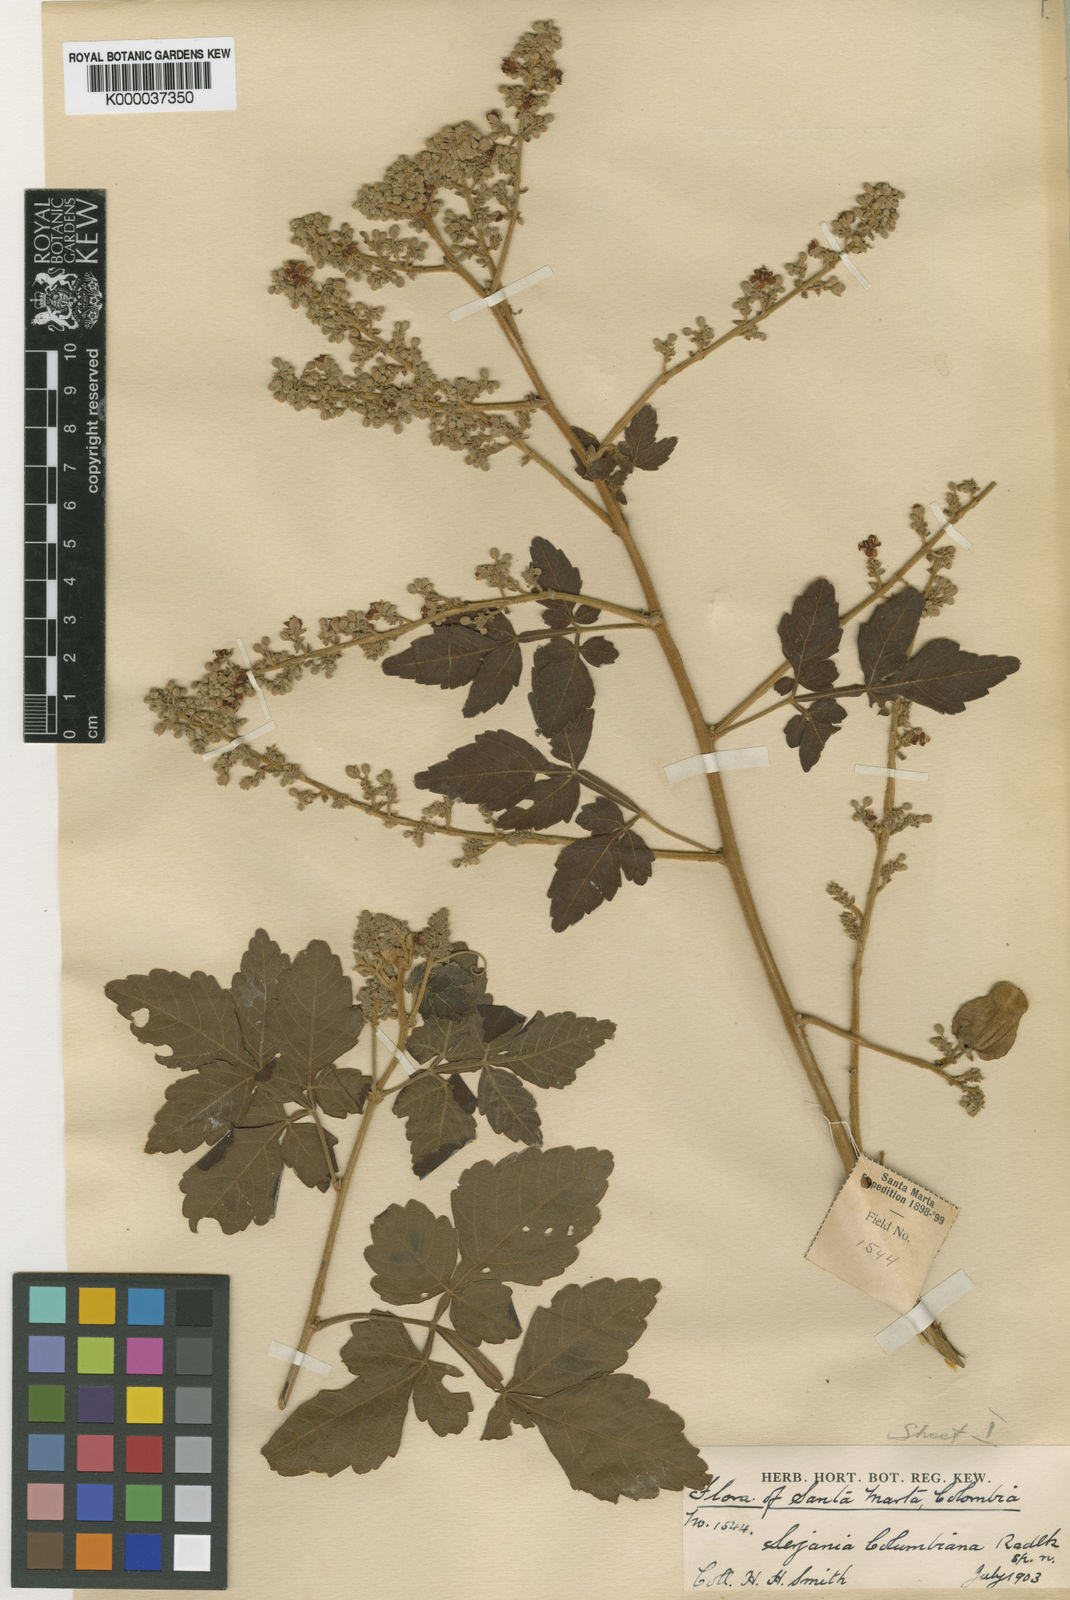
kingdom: Plantae
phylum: Tracheophyta
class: Magnoliopsida
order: Sapindales
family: Sapindaceae
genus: Serjania
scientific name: Serjania columbiana
